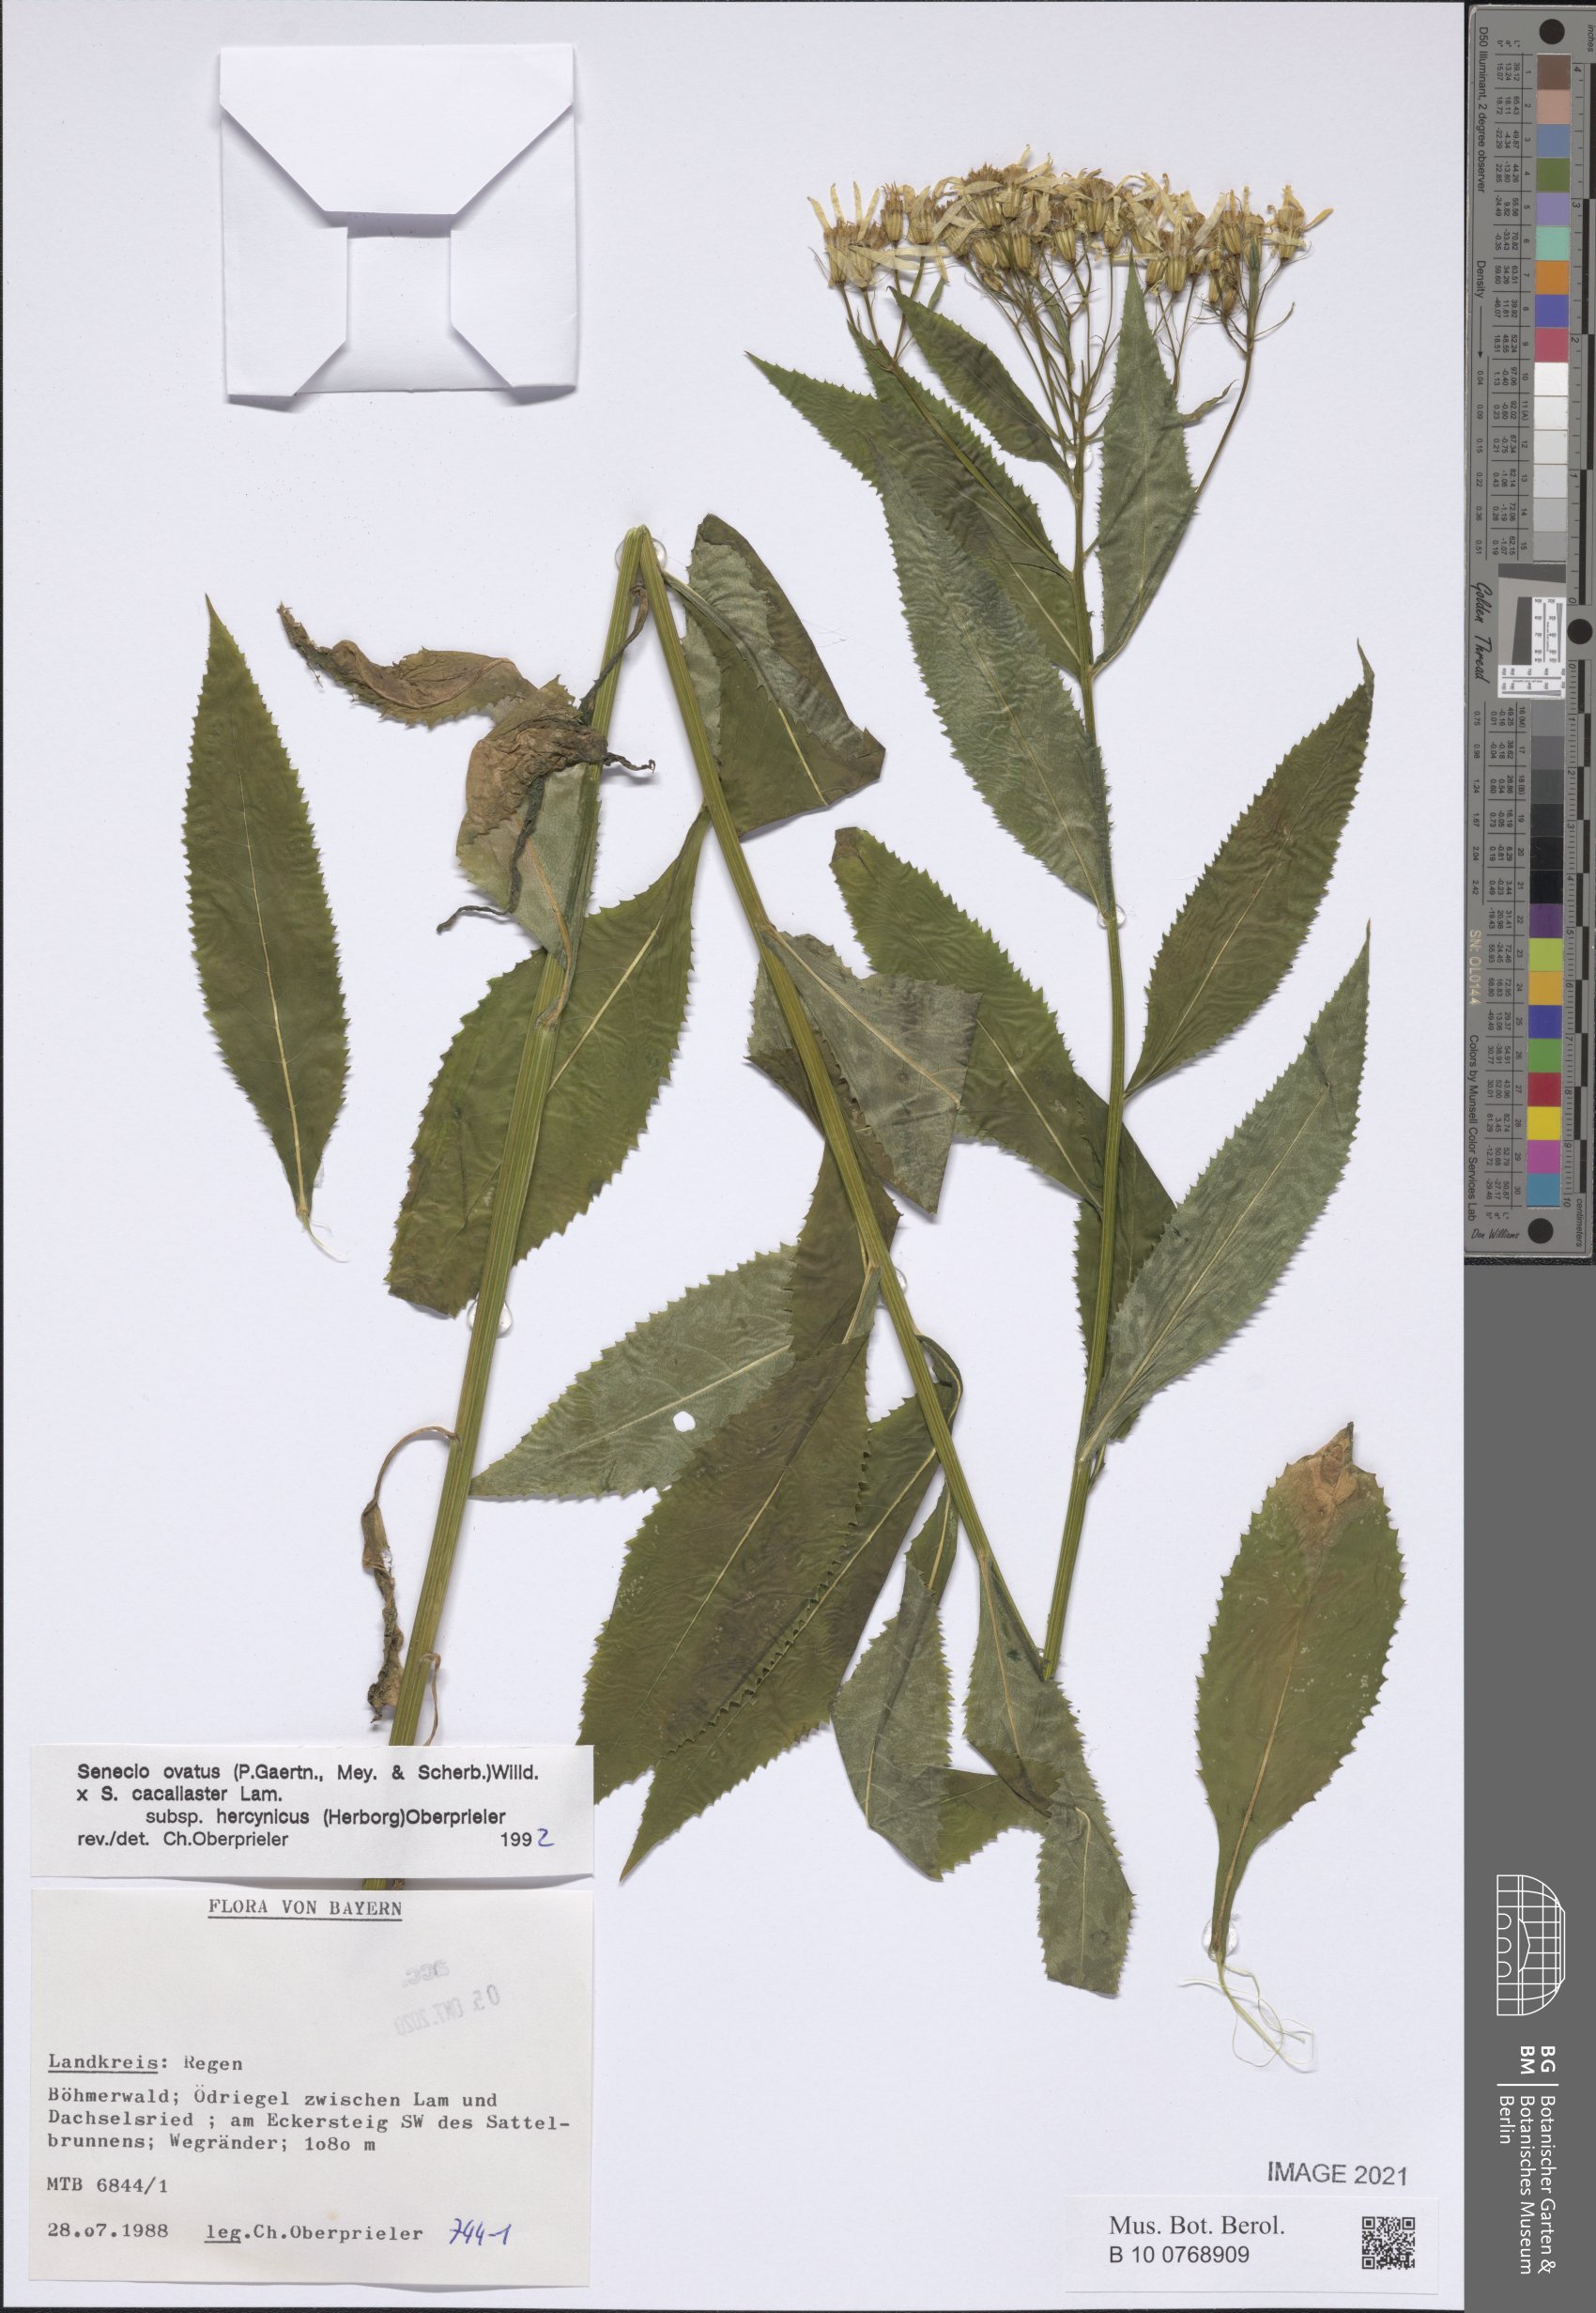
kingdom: Plantae
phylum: Tracheophyta
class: Magnoliopsida
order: Asterales
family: Asteraceae
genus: Senecio
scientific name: Senecio ovatus
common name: Wood ragwort
